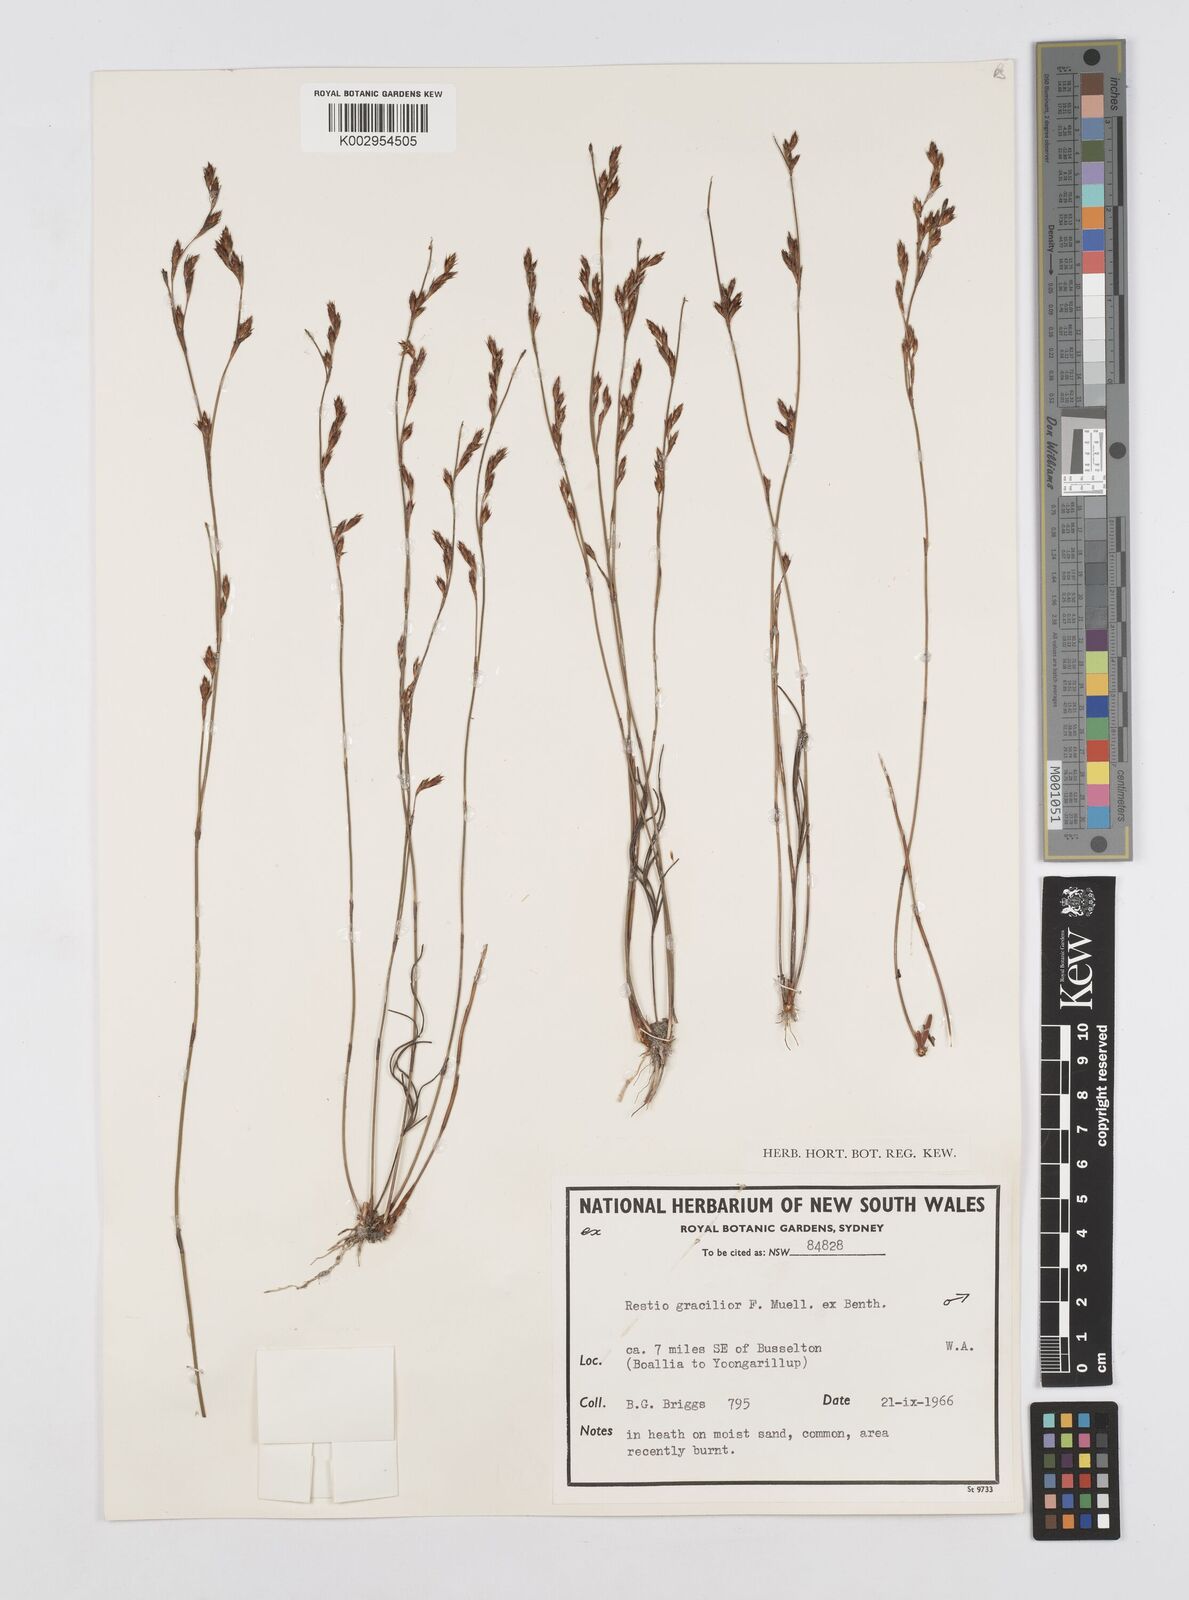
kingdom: Plantae
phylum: Tracheophyta
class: Liliopsida
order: Poales
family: Restionaceae
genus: Chordifex
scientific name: Chordifex gracilior
